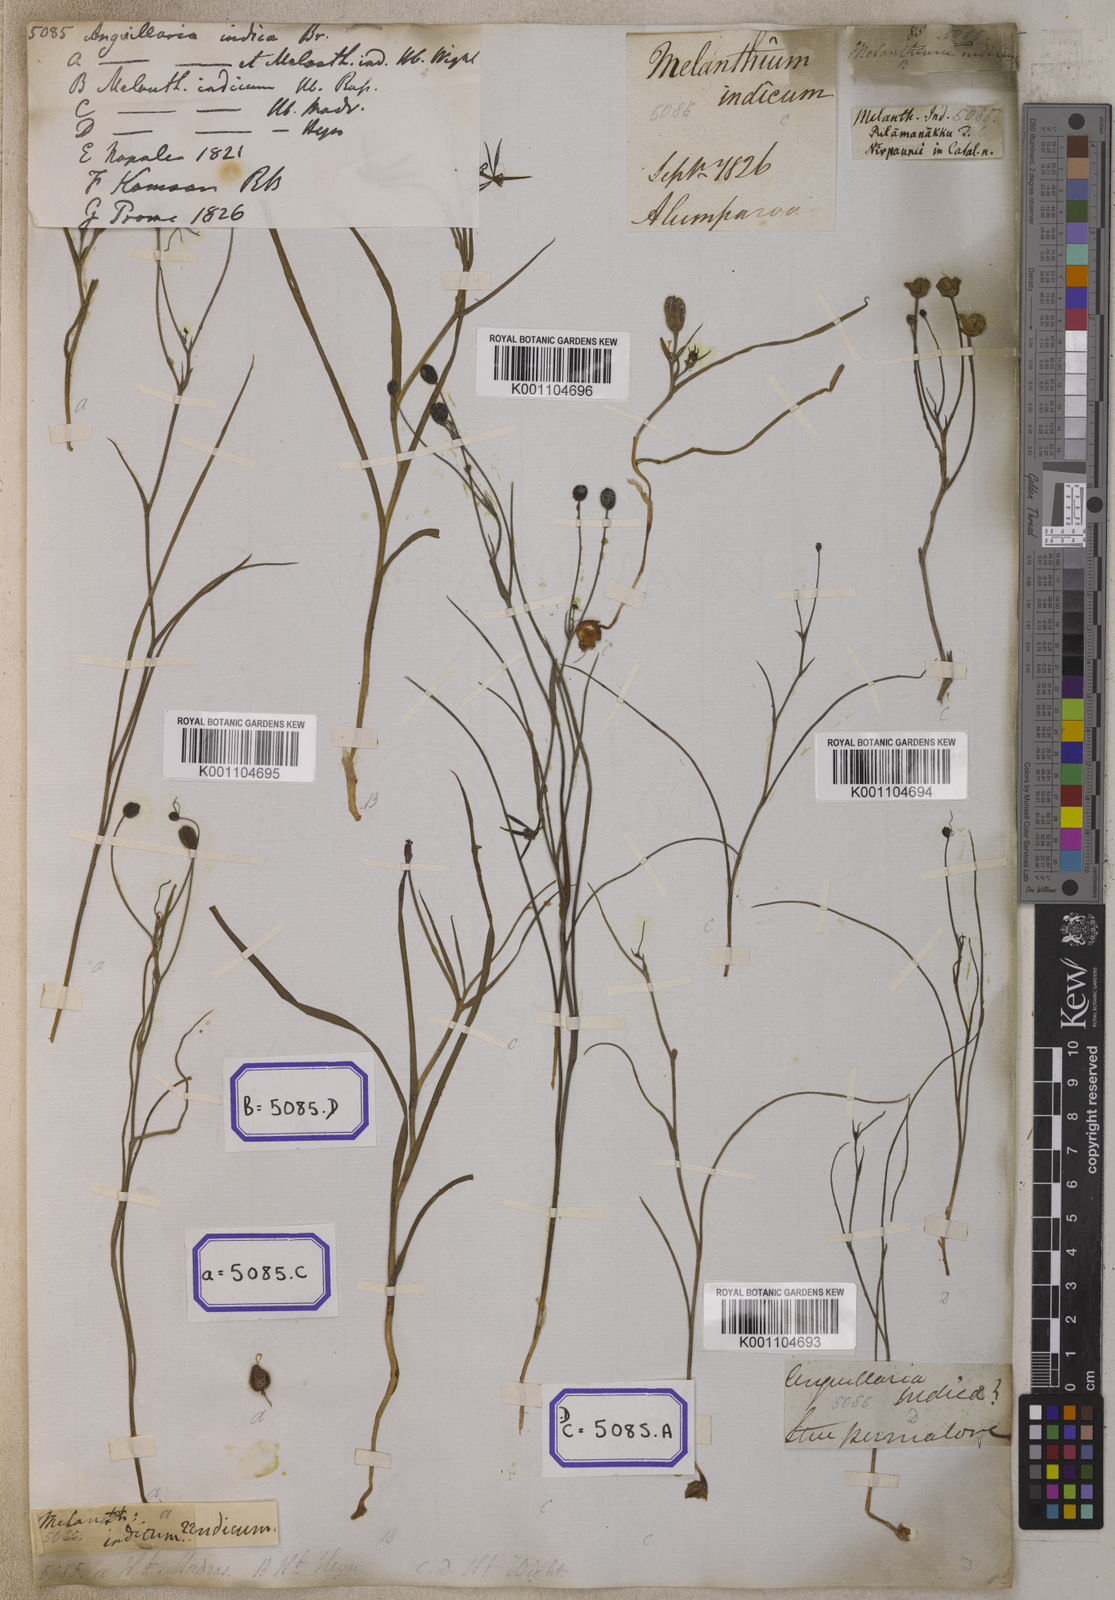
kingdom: Plantae
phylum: Tracheophyta
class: Liliopsida
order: Liliales
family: Colchicaceae
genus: Iphigenia
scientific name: Iphigenia indica
